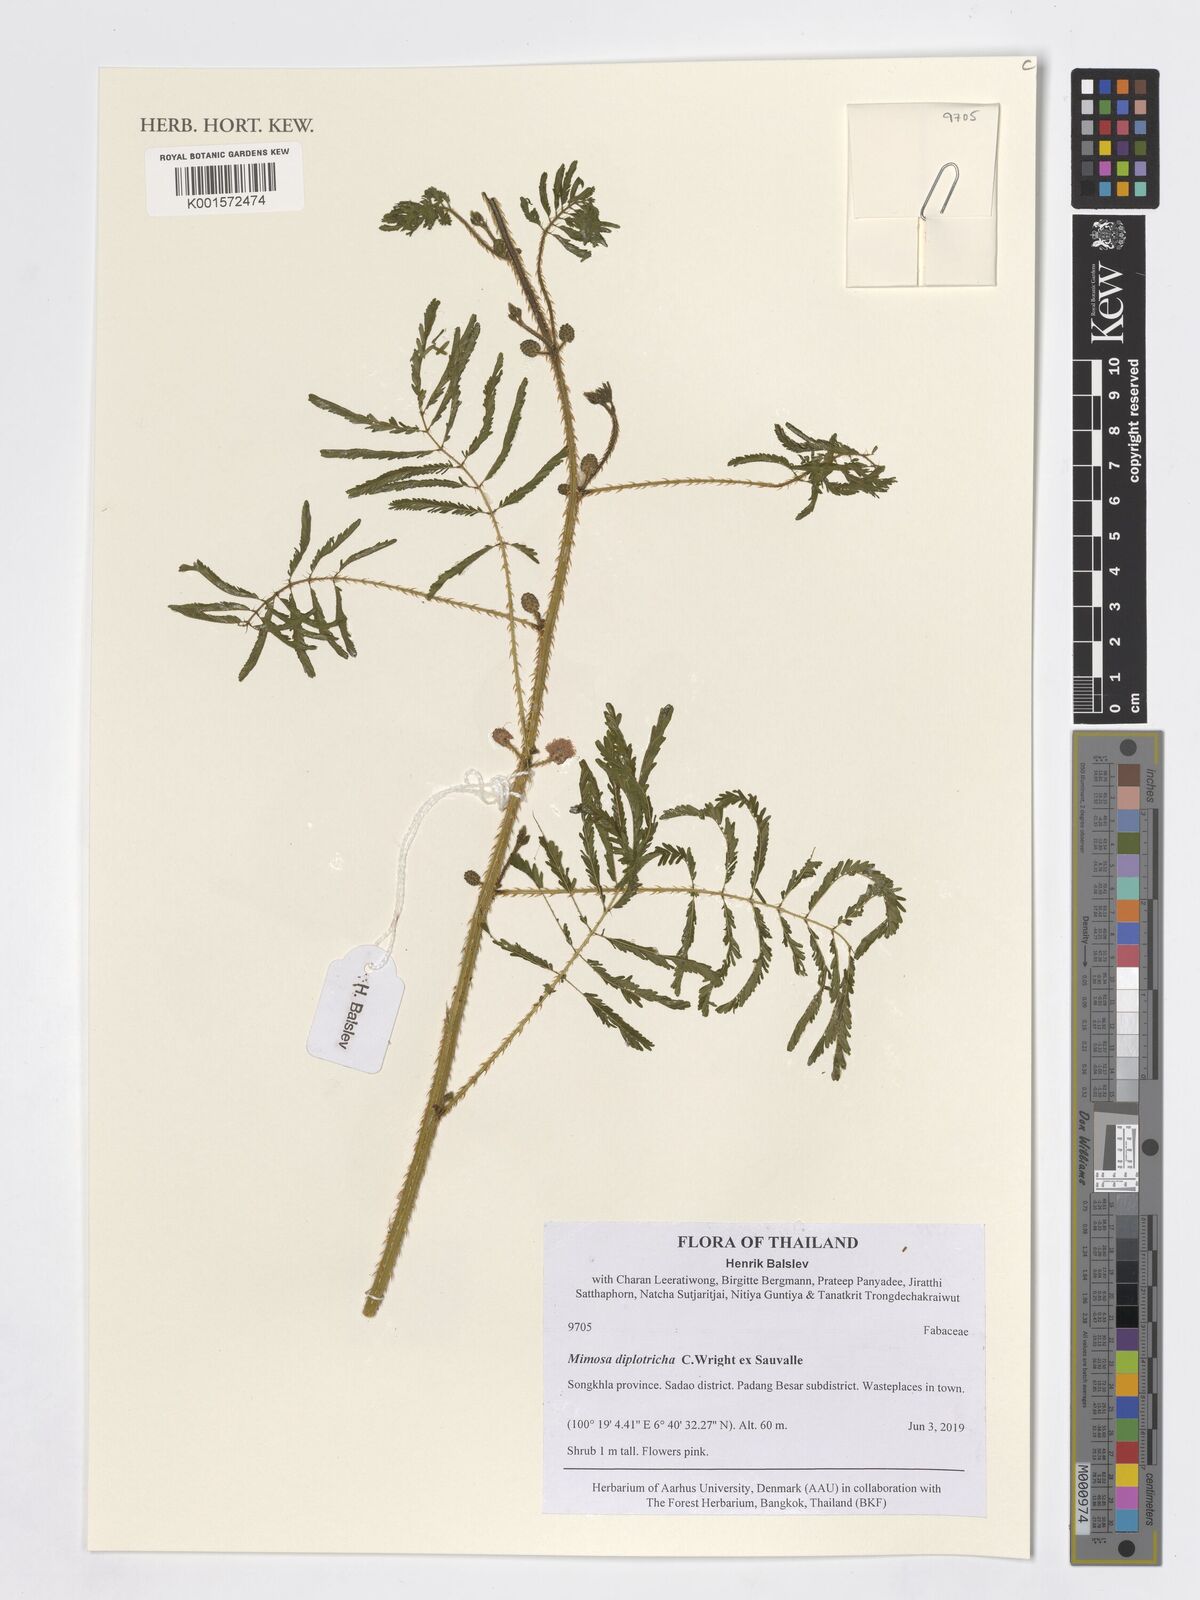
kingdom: Plantae
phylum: Tracheophyta
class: Magnoliopsida
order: Fabales
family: Fabaceae
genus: Mimosa
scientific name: Mimosa diplotricha
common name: Giant sensitive-plant
